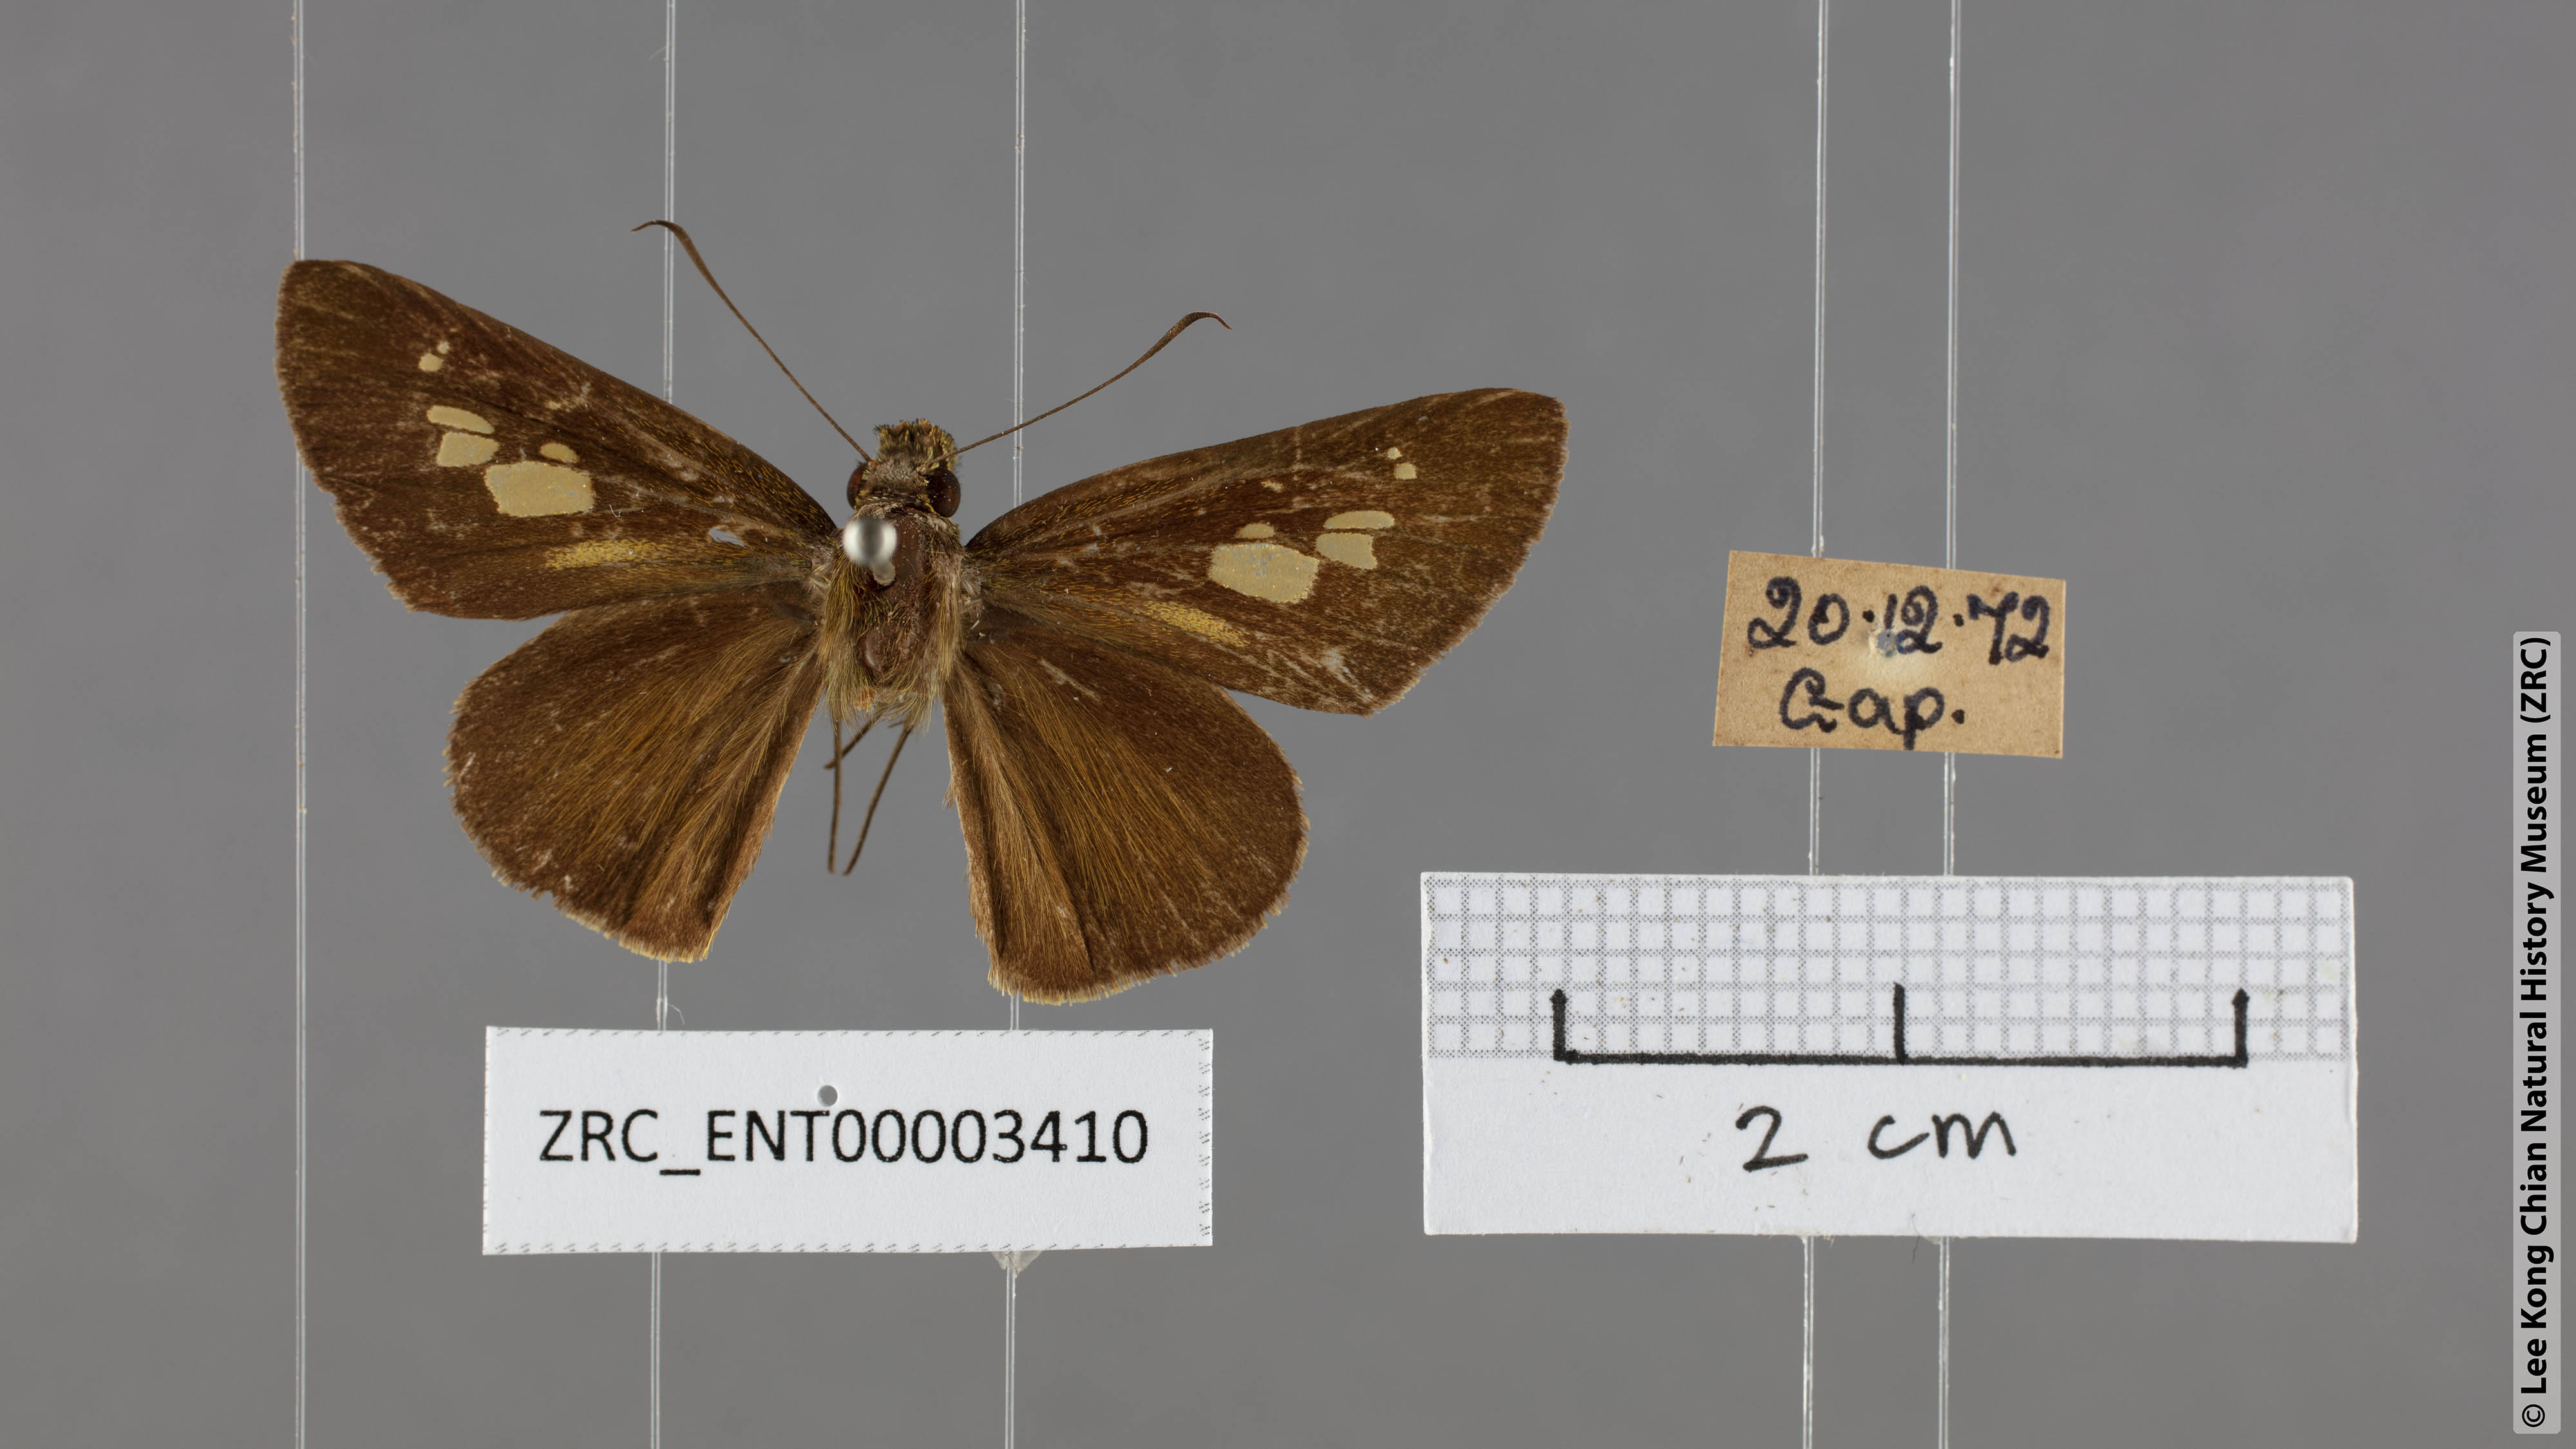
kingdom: Animalia
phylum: Arthropoda
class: Insecta
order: Lepidoptera
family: Hesperiidae
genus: Pemara
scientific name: Pemara pugnans
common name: Pugnacious lancer
